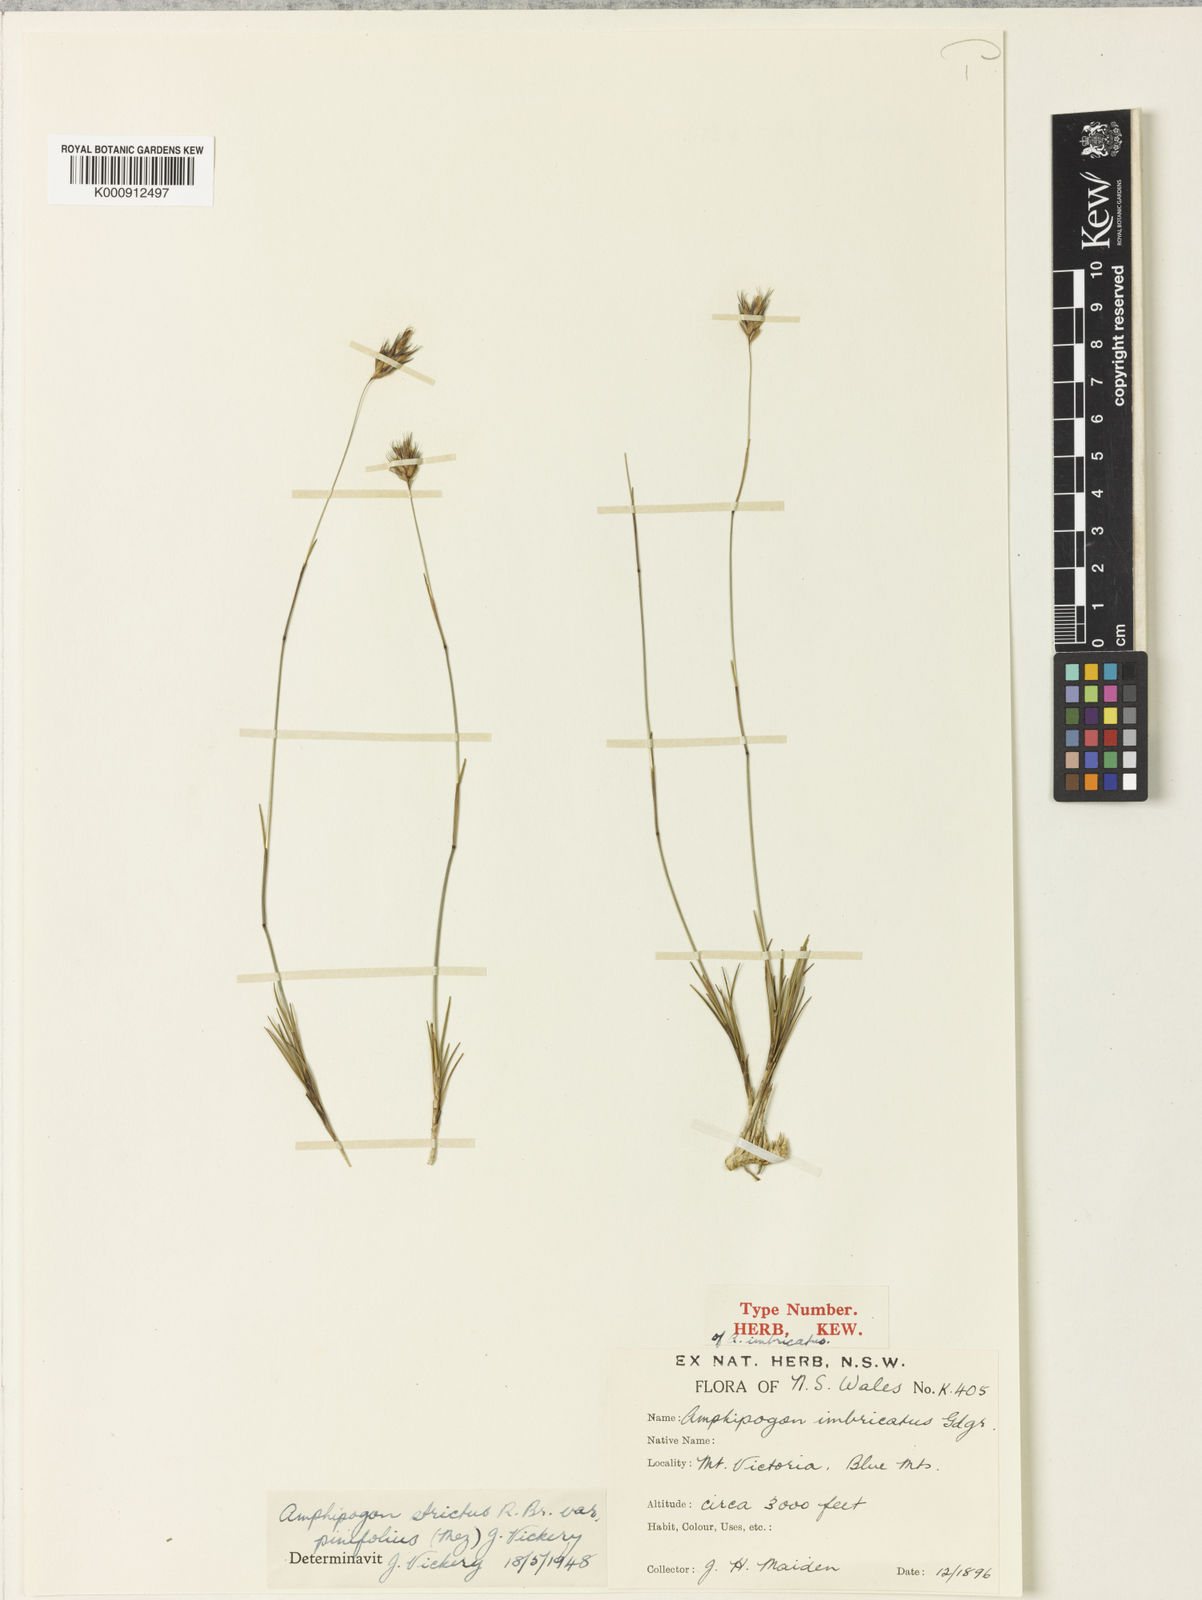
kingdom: Plantae
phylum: Tracheophyta
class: Liliopsida
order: Poales
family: Poaceae
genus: Amphipogon
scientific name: Amphipogon strictus
